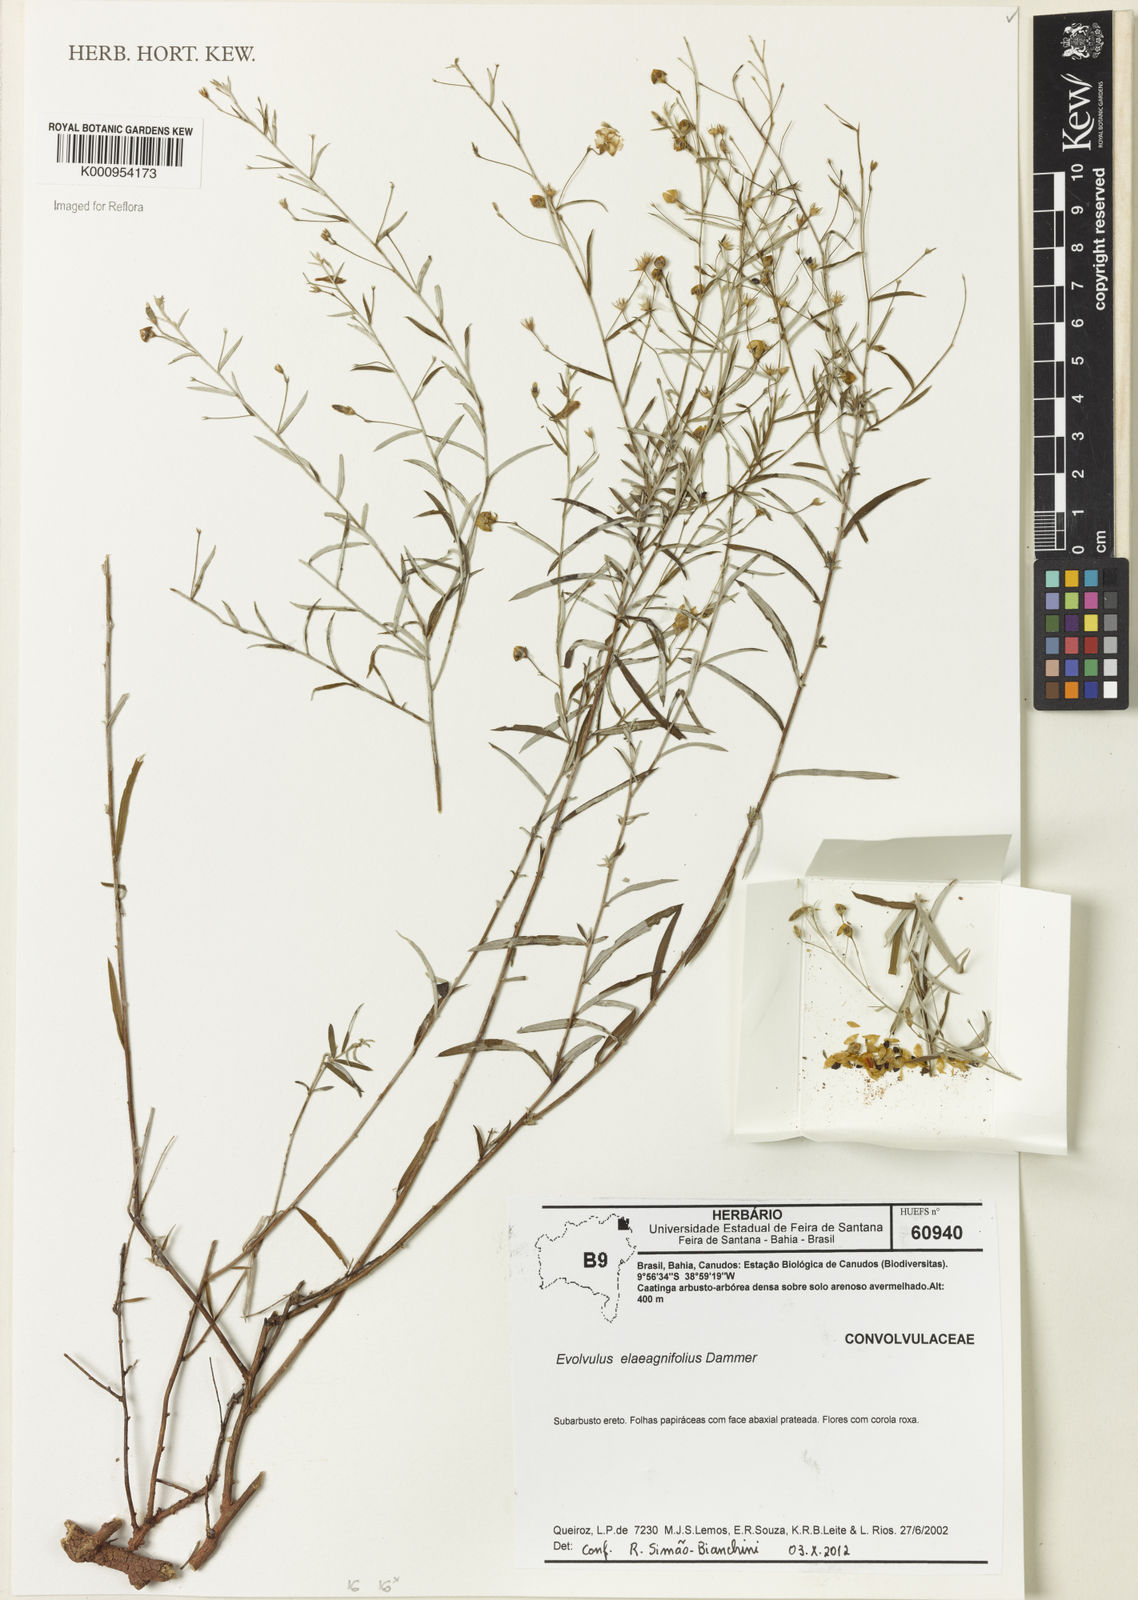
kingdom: Plantae
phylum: Tracheophyta
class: Magnoliopsida
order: Solanales
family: Convolvulaceae
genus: Evolvulus
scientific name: Evolvulus elaeagnifolius
